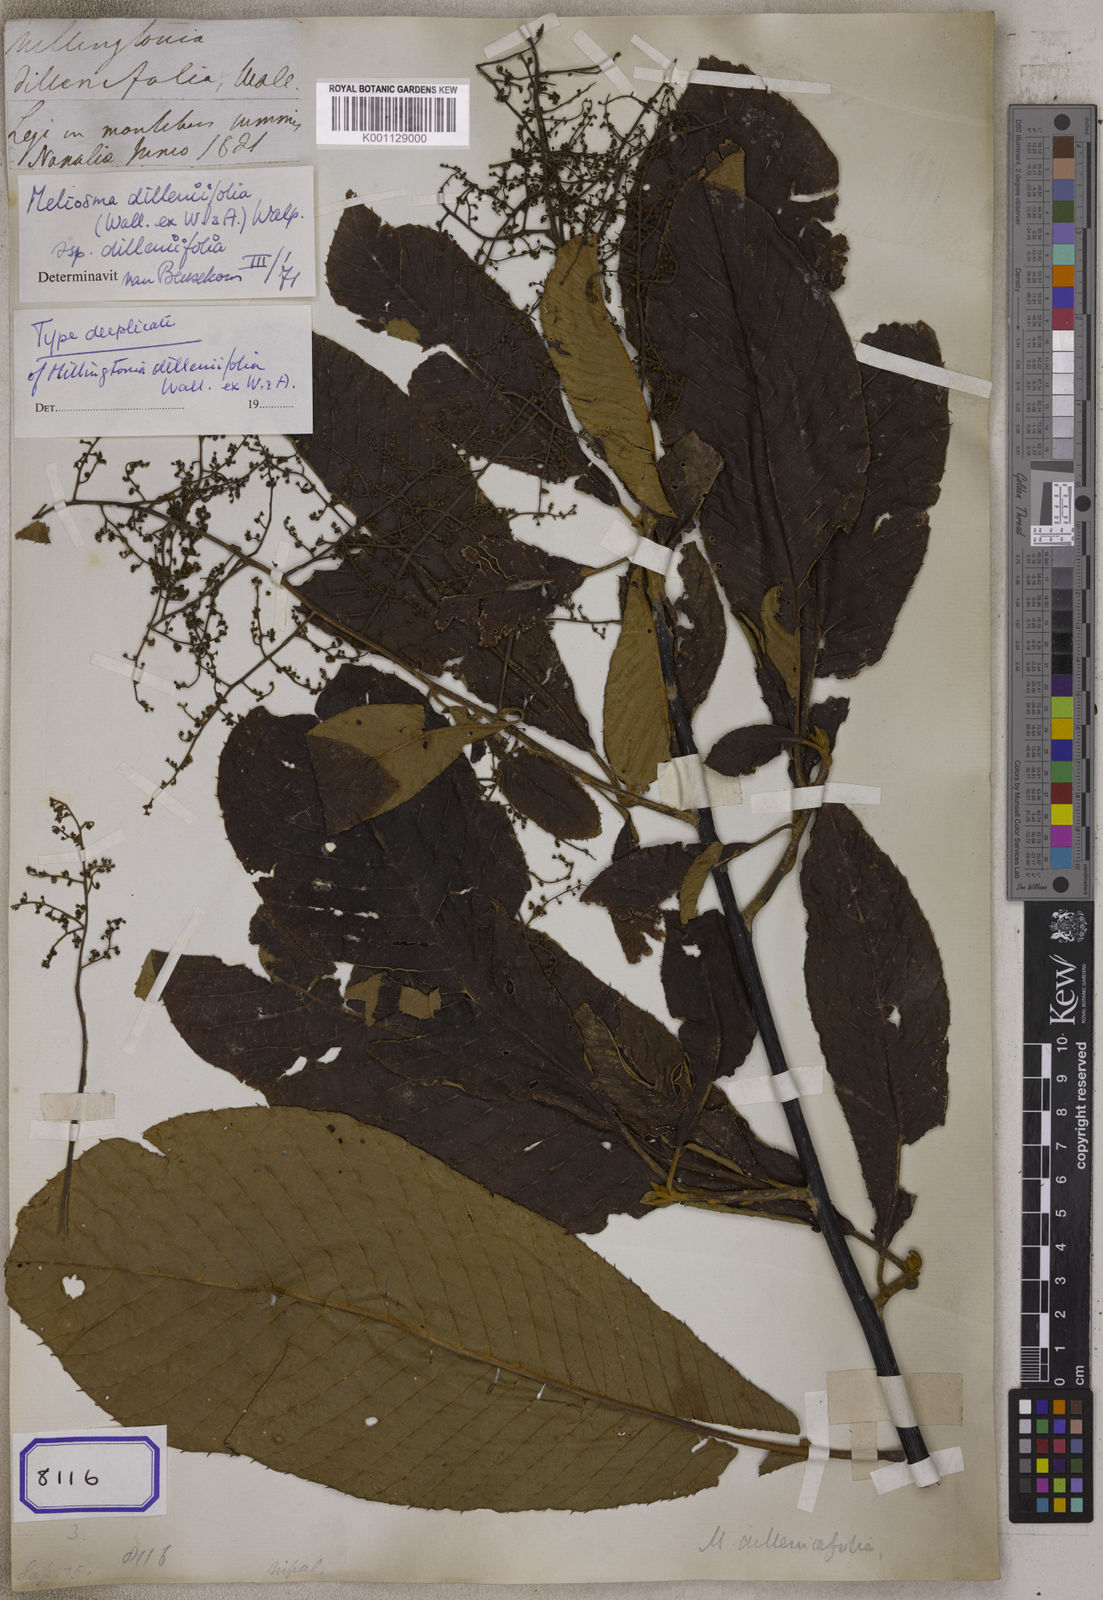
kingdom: Plantae
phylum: Tracheophyta
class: Magnoliopsida
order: Lamiales
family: Bignoniaceae
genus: Millingtonia
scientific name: Millingtonia
